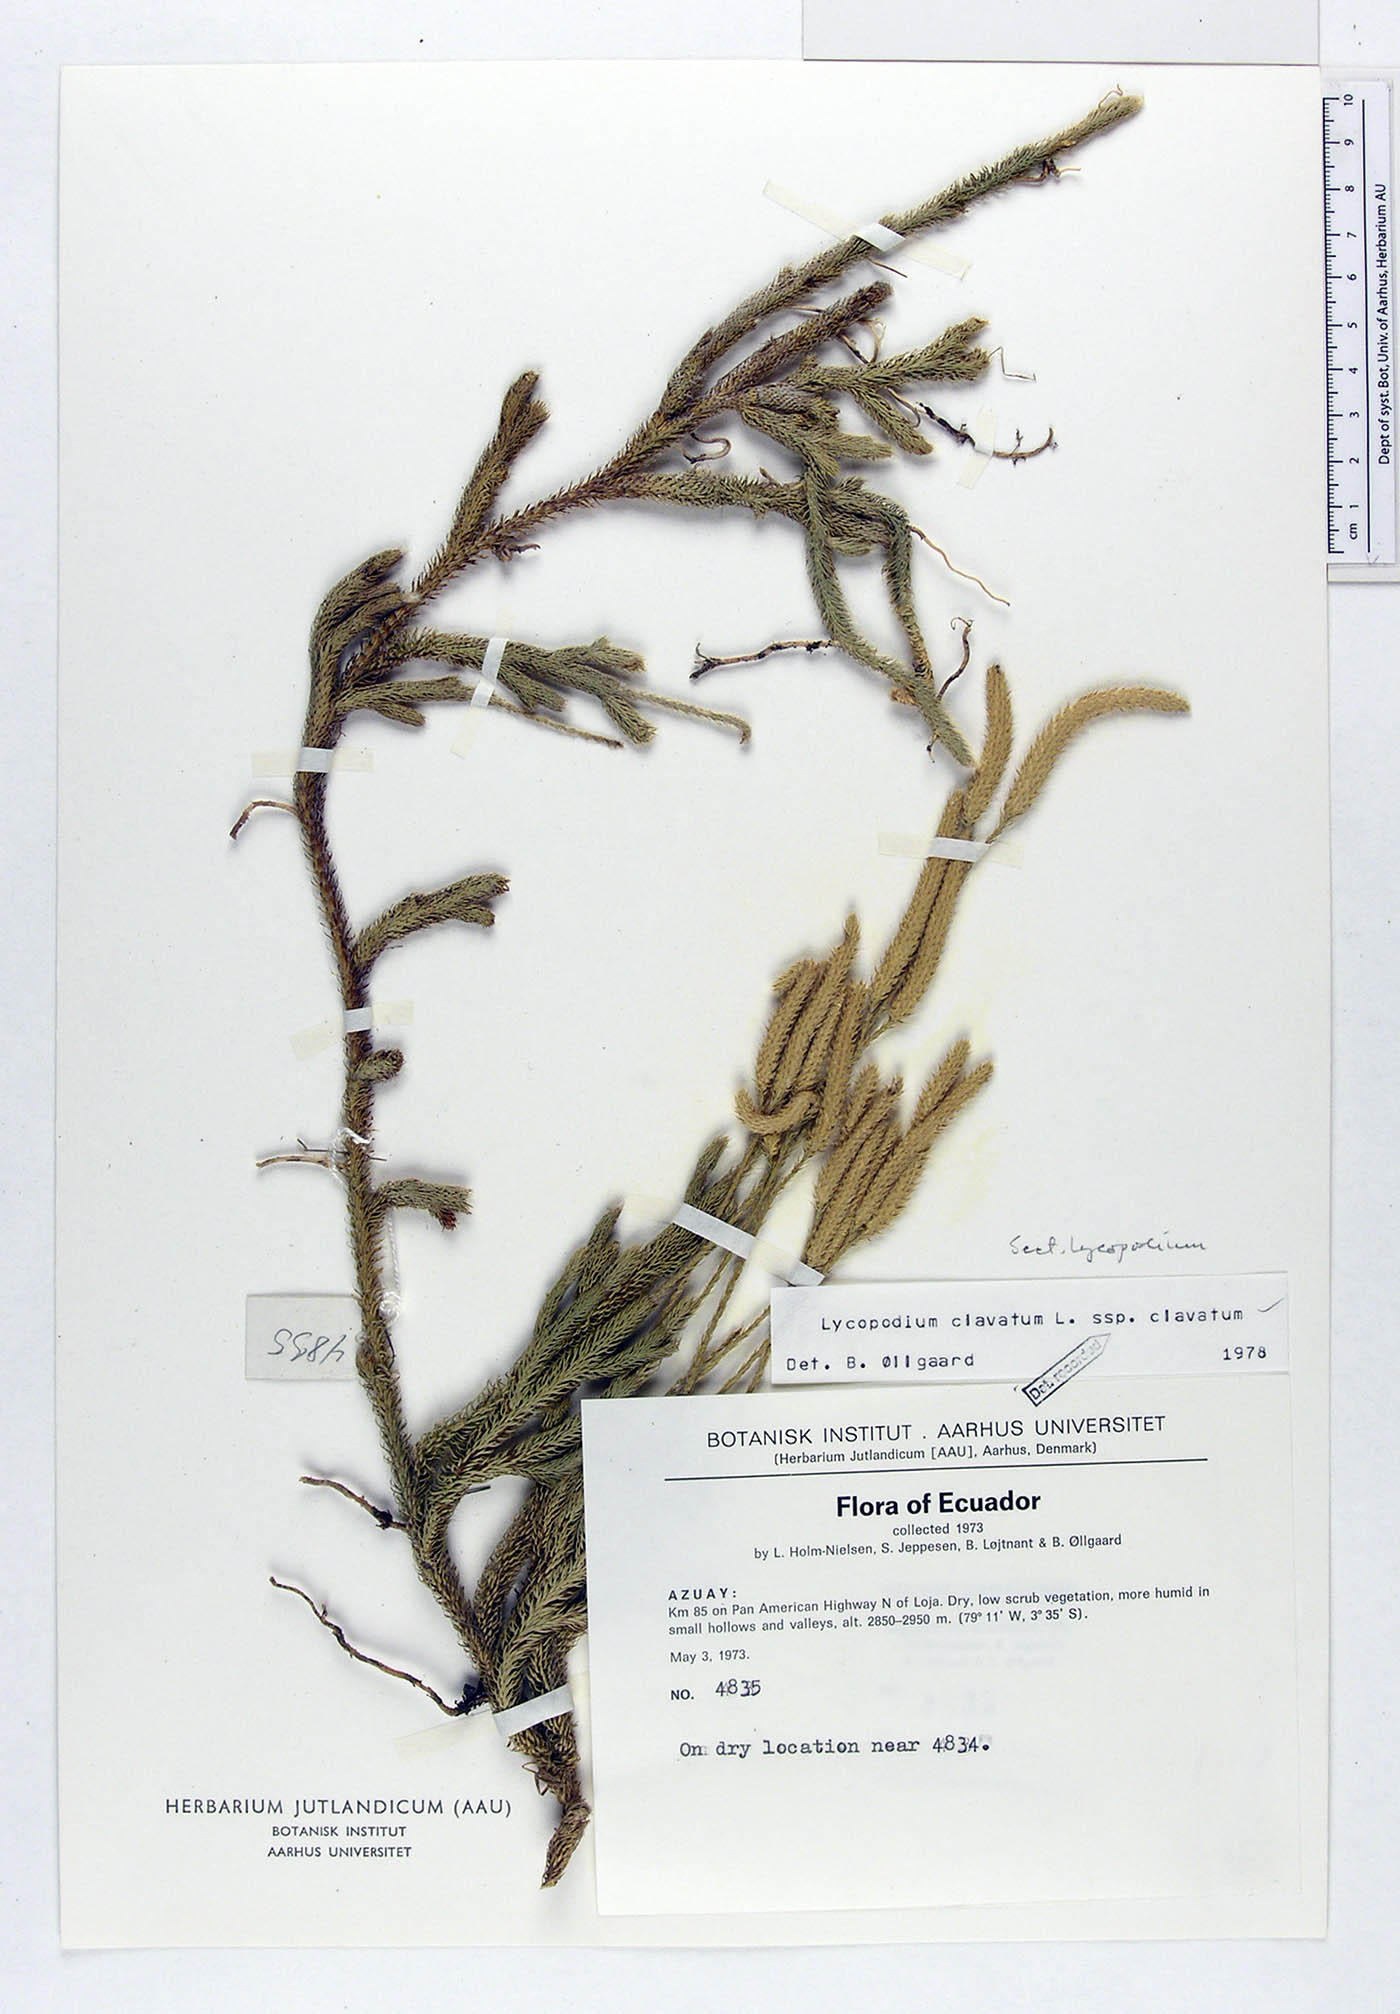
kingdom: Plantae
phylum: Tracheophyta
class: Lycopodiopsida
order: Lycopodiales
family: Lycopodiaceae
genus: Lycopodium
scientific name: Lycopodium clavatum
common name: Stag's-horn clubmoss
